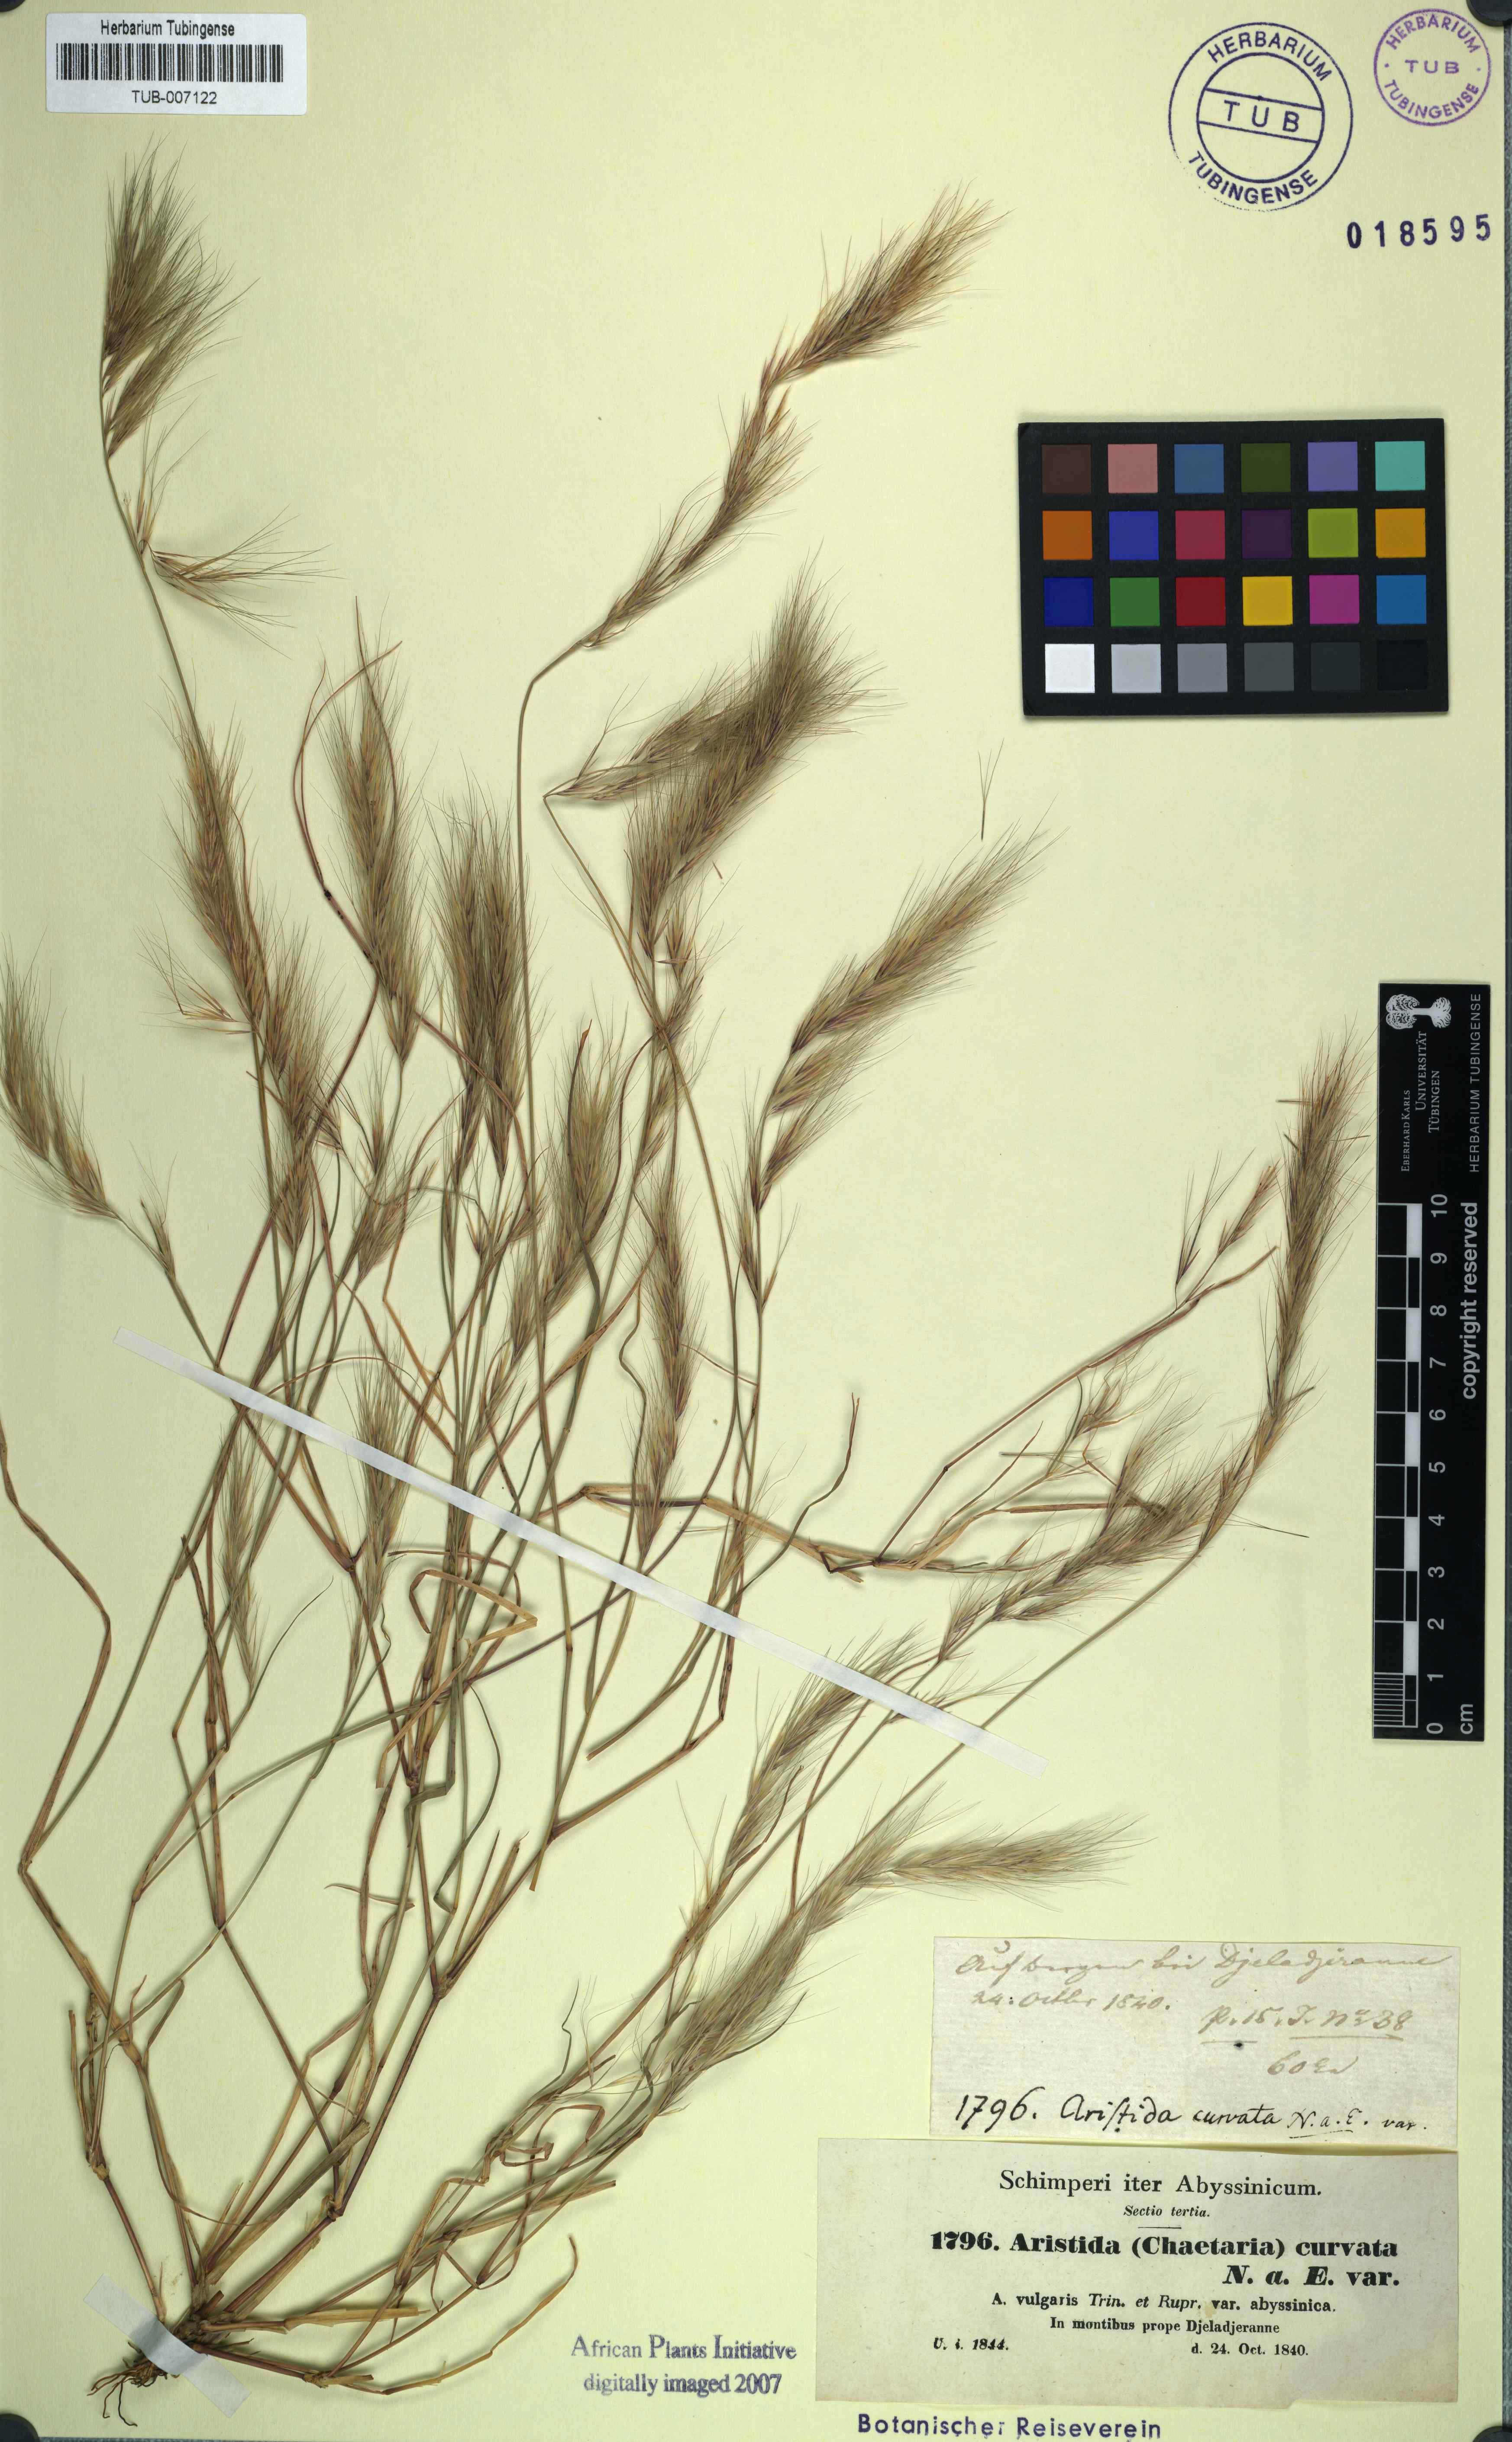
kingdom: Plantae
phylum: Tracheophyta
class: Liliopsida
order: Poales
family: Poaceae
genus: Aristida
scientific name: Aristida adscensionis
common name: Sixweeks threeawn
